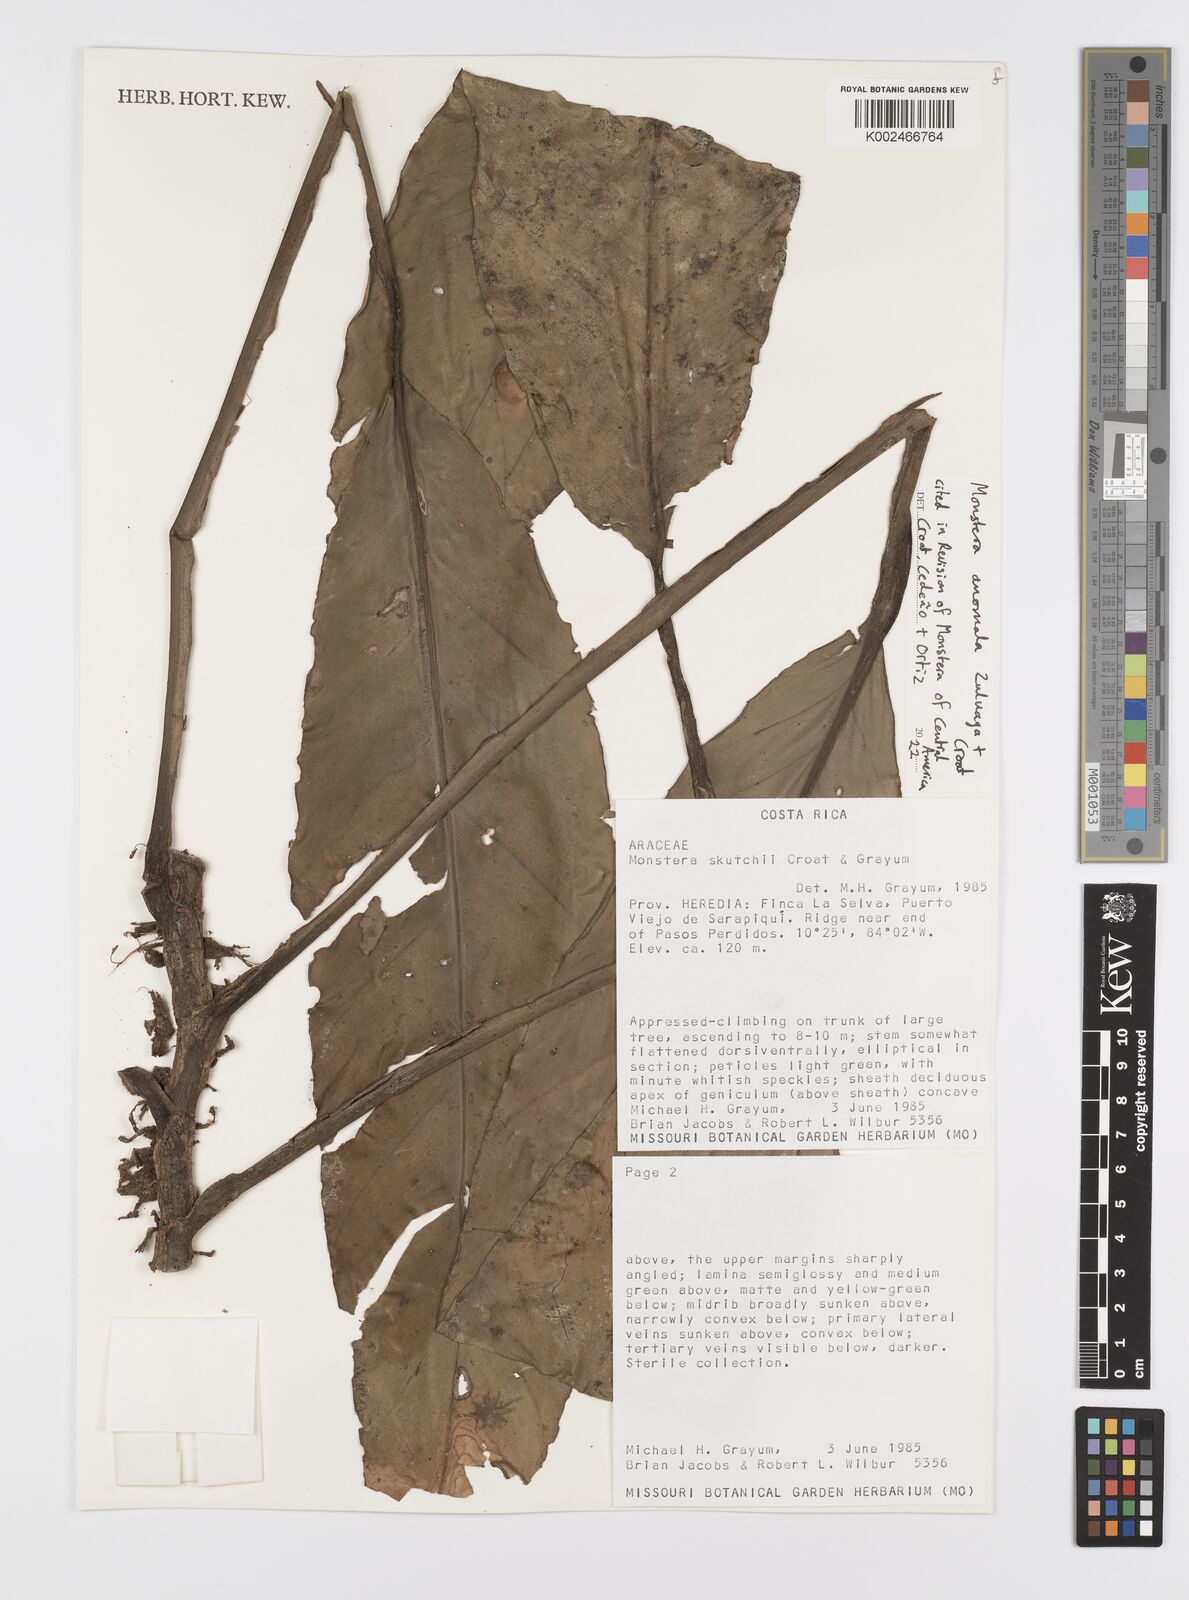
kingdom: Plantae
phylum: Tracheophyta
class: Liliopsida
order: Alismatales
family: Araceae
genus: Monstera
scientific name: Monstera anomala
